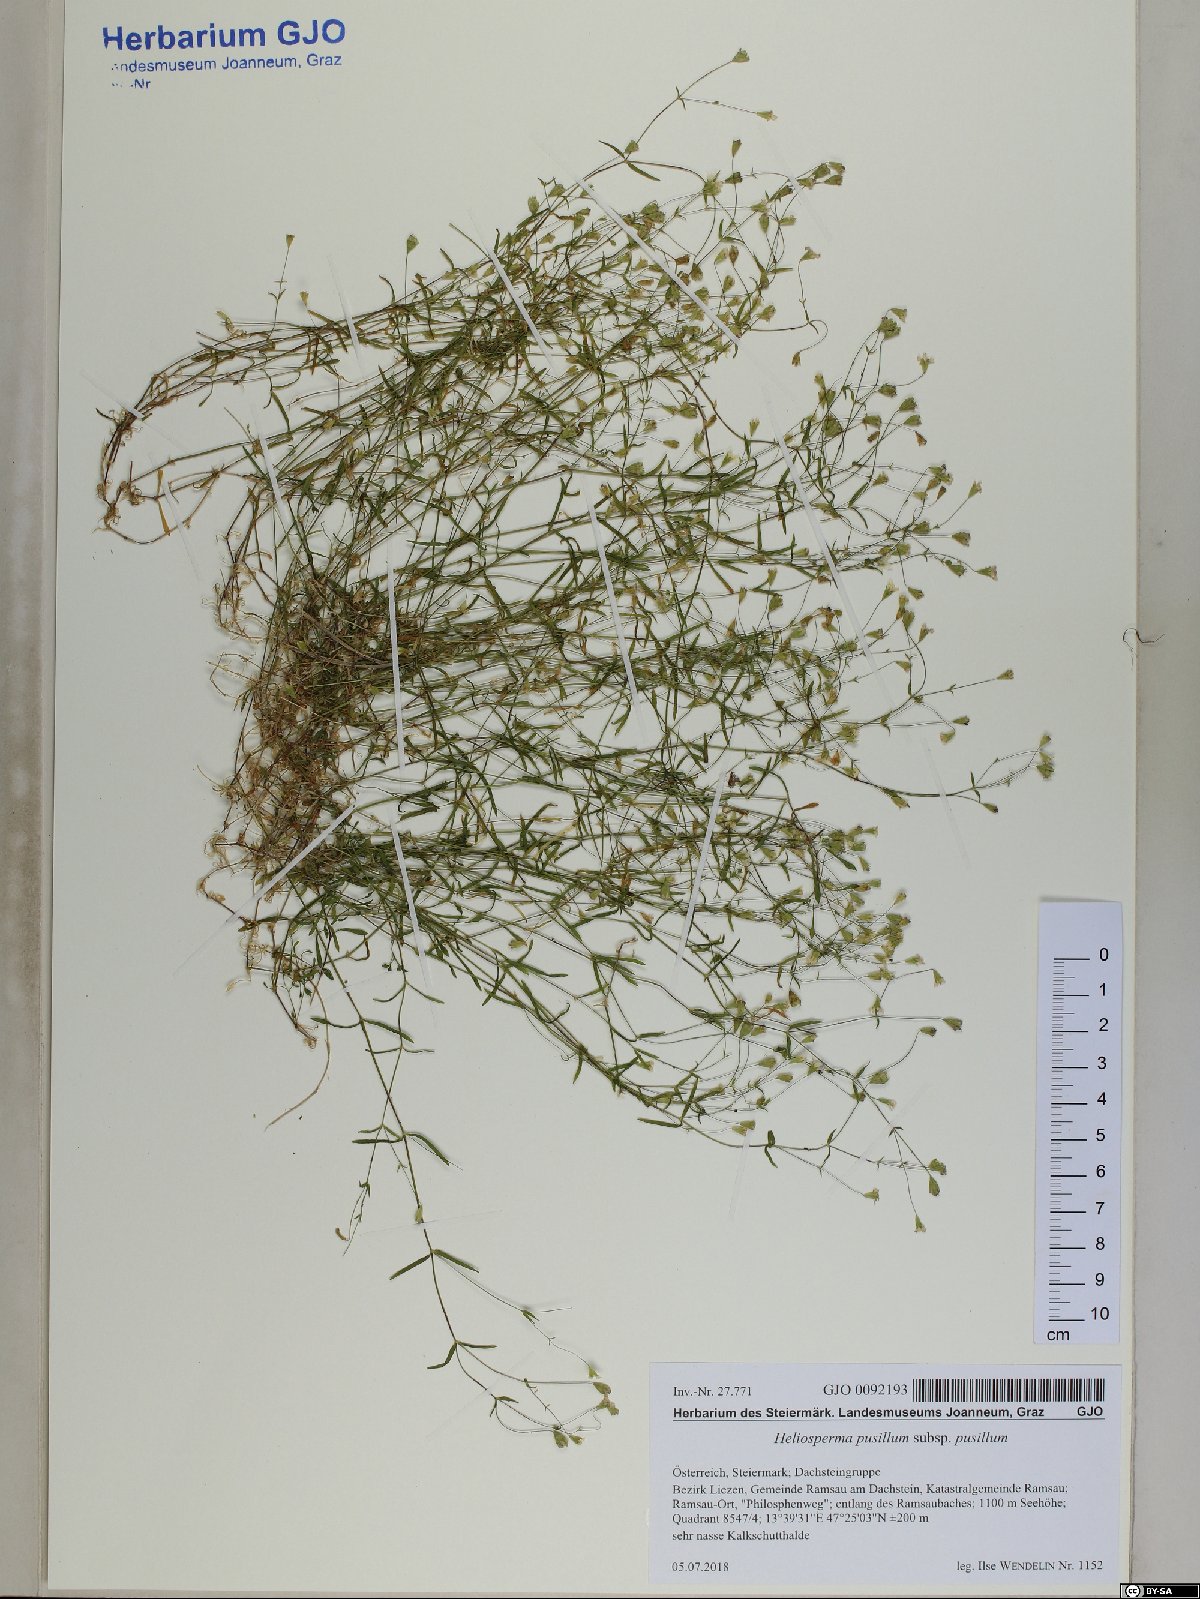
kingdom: Plantae
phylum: Tracheophyta
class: Magnoliopsida
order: Caryophyllales
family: Caryophyllaceae
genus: Heliosperma
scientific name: Heliosperma pusillum
